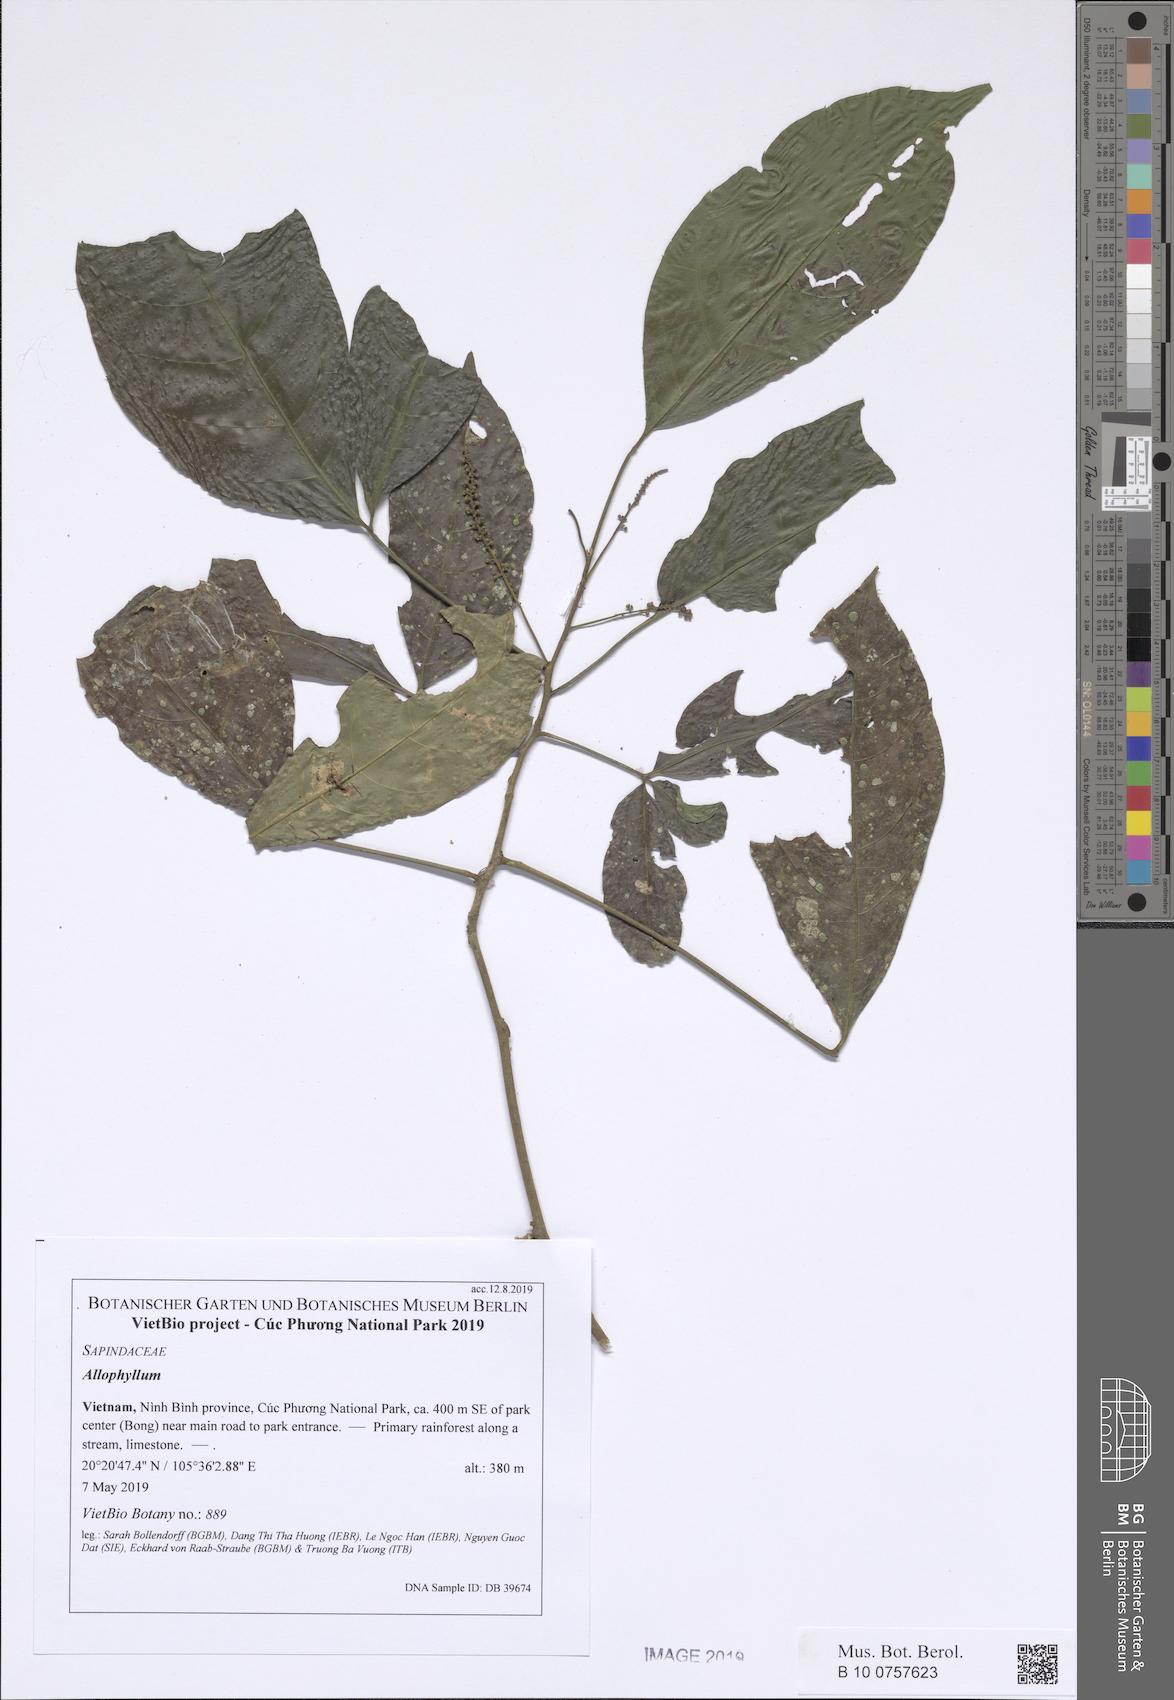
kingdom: Plantae
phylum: Tracheophyta
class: Magnoliopsida
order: Sapindales
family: Sapindaceae
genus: Allophylus
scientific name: Allophylus caudatus
